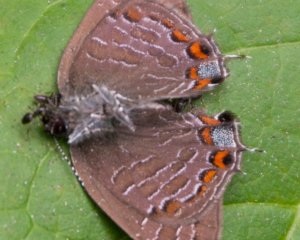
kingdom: Animalia
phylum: Arthropoda
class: Insecta
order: Lepidoptera
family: Lycaenidae
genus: Satyrium
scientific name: Satyrium liparops
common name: Striped Hairstreak
